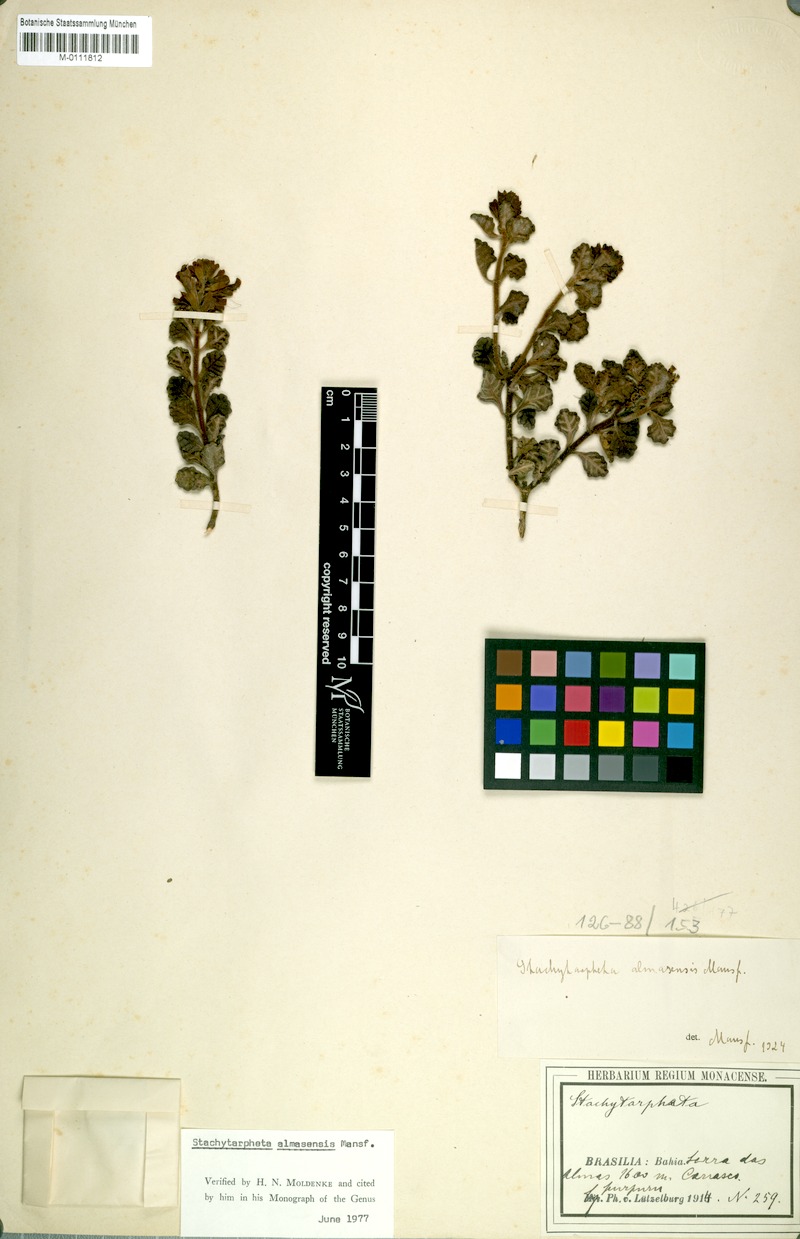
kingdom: Plantae
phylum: Tracheophyta
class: Magnoliopsida
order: Lamiales
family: Verbenaceae
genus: Stachytarpheta
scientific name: Stachytarpheta almasensis
